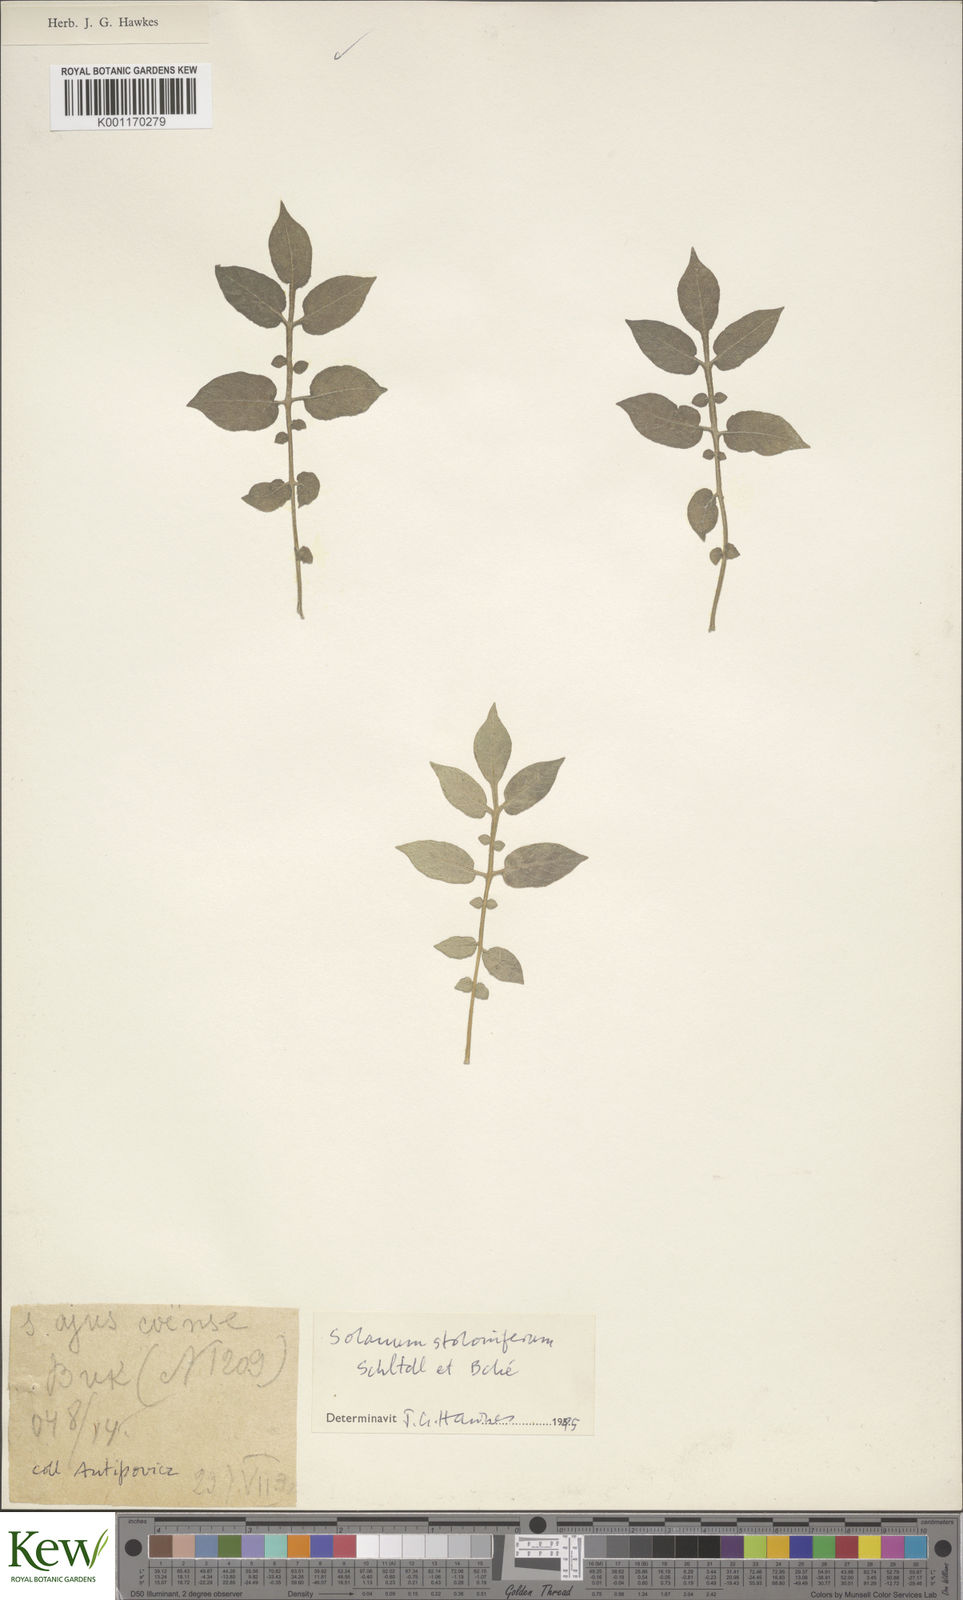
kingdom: Plantae
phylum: Tracheophyta
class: Magnoliopsida
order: Solanales
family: Solanaceae
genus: Solanum
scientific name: Solanum stoloniferum
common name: Fendler's nighshade
